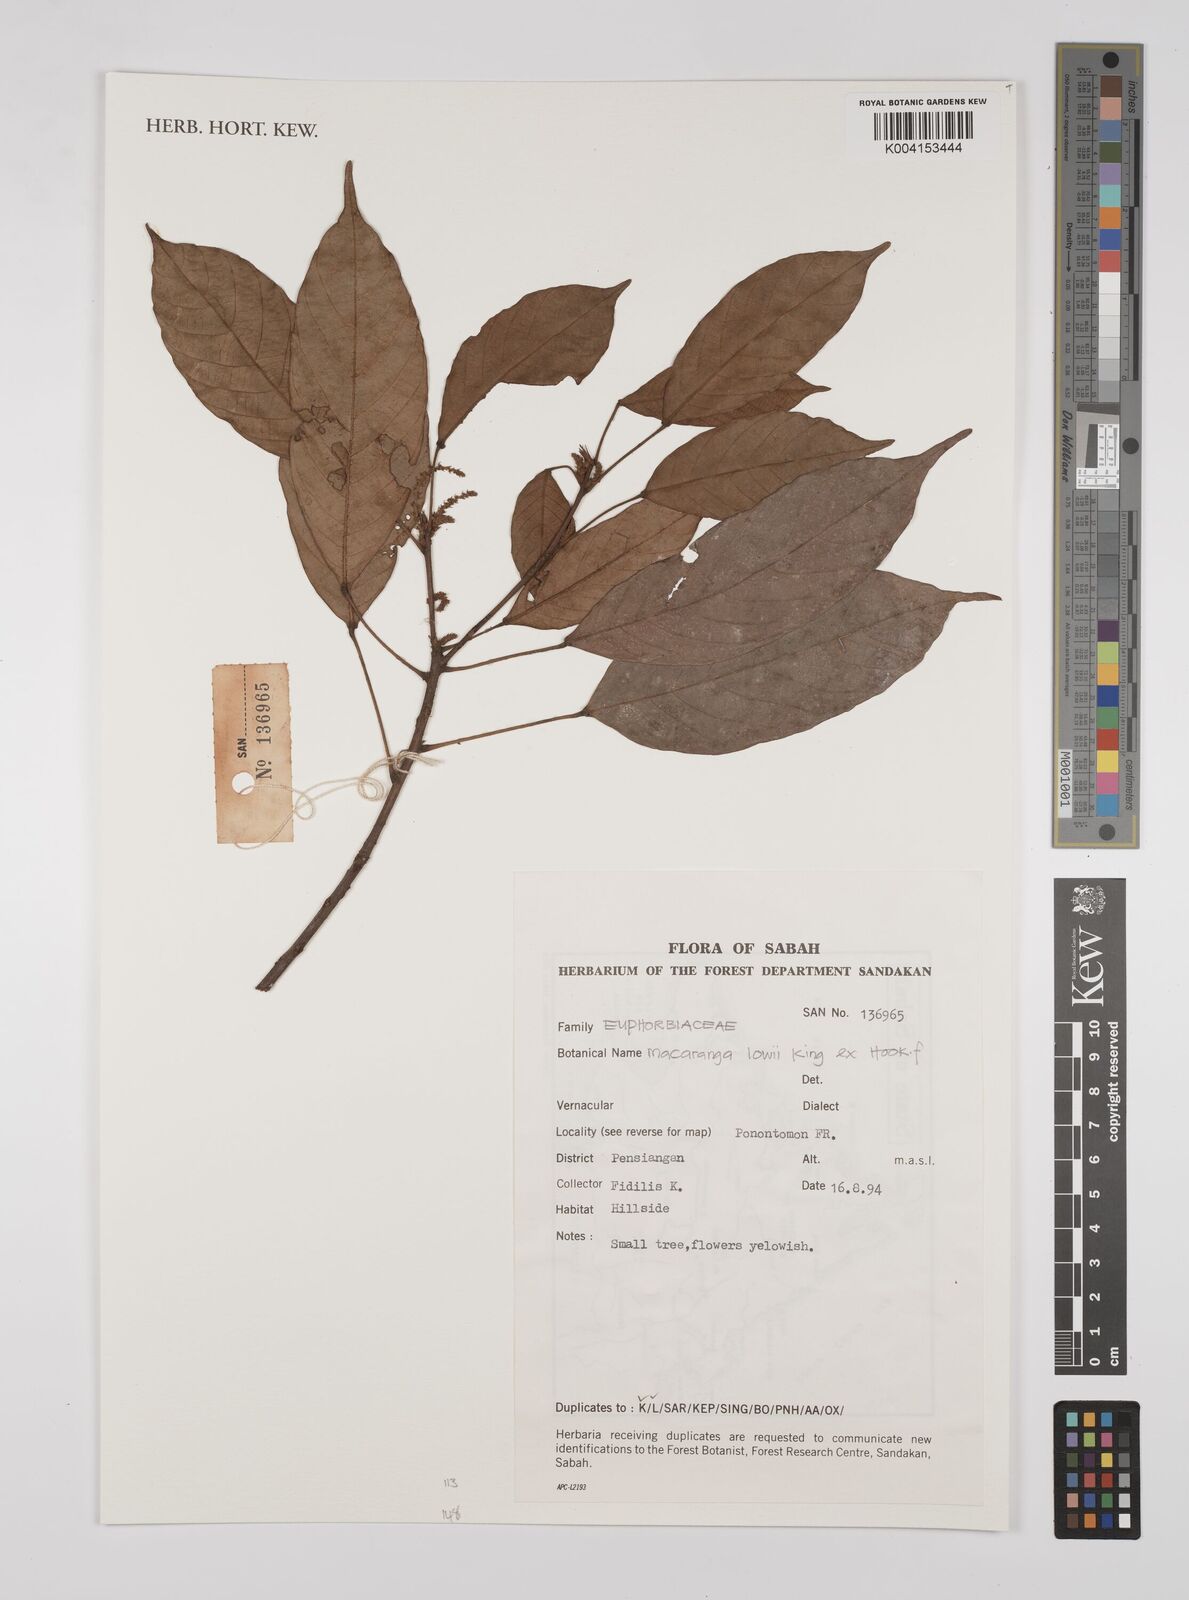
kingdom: Plantae
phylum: Tracheophyta
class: Magnoliopsida
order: Malpighiales
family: Euphorbiaceae
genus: Macaranga
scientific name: Macaranga lowii
